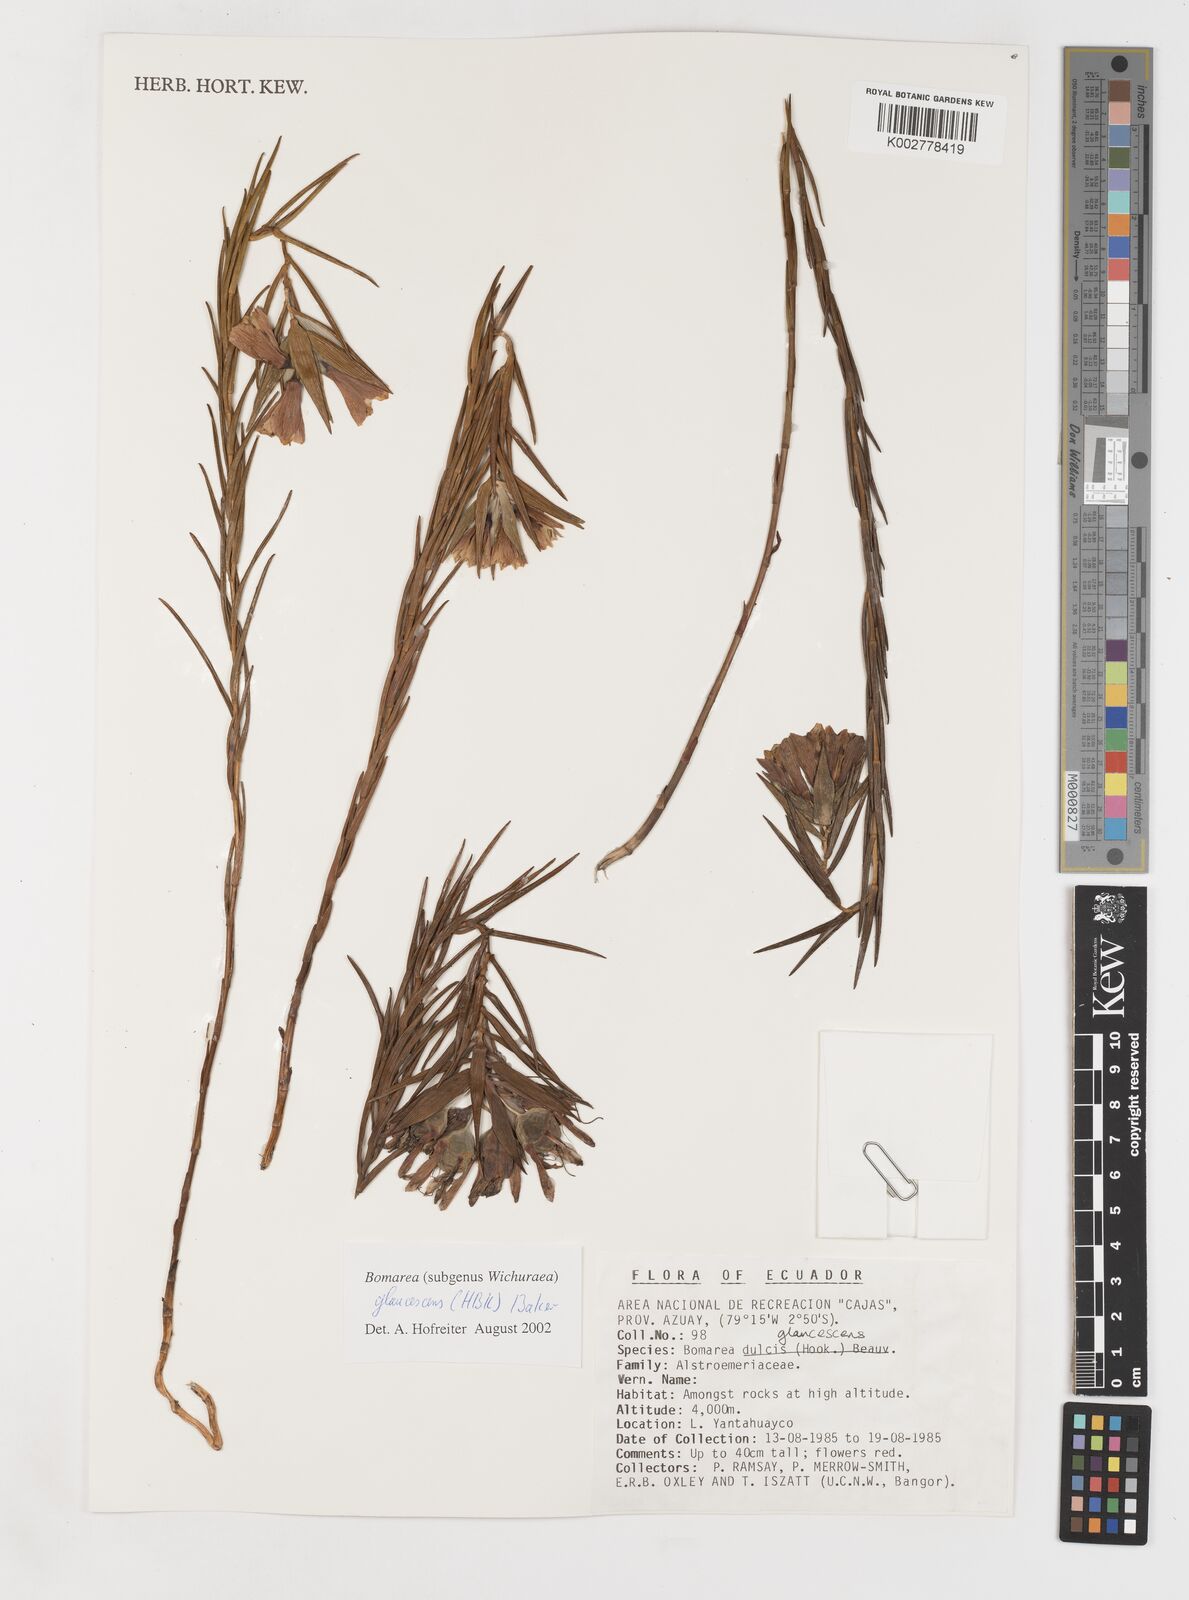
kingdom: Plantae
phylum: Tracheophyta
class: Liliopsida
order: Liliales
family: Alstroemeriaceae
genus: Bomarea
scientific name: Bomarea glaucescens
